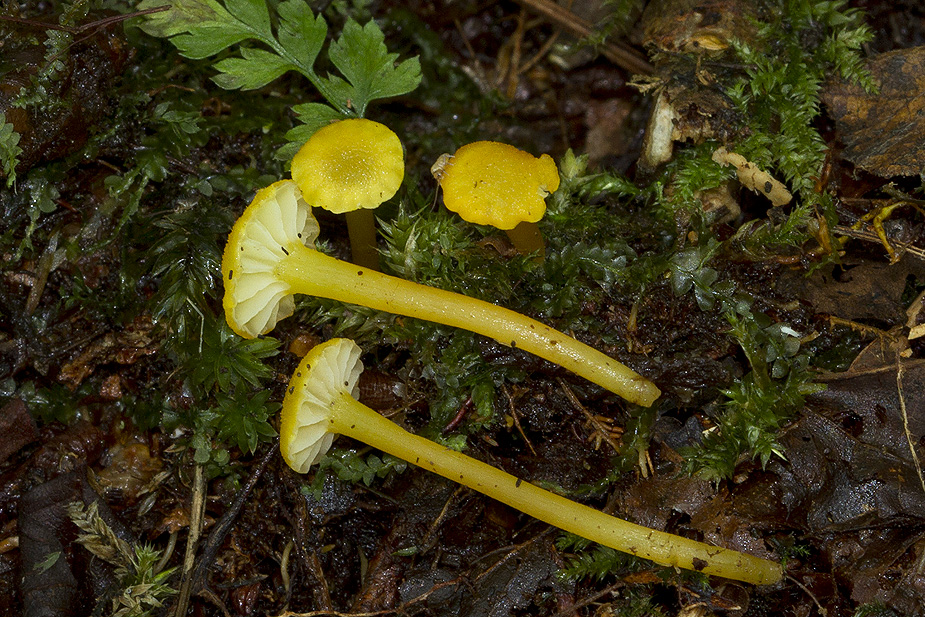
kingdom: Fungi
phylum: Basidiomycota
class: Agaricomycetes
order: Agaricales
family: Hygrophoraceae
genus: Hygrocybe
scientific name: Hygrocybe cantharellus
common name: kantarel-vokshat
